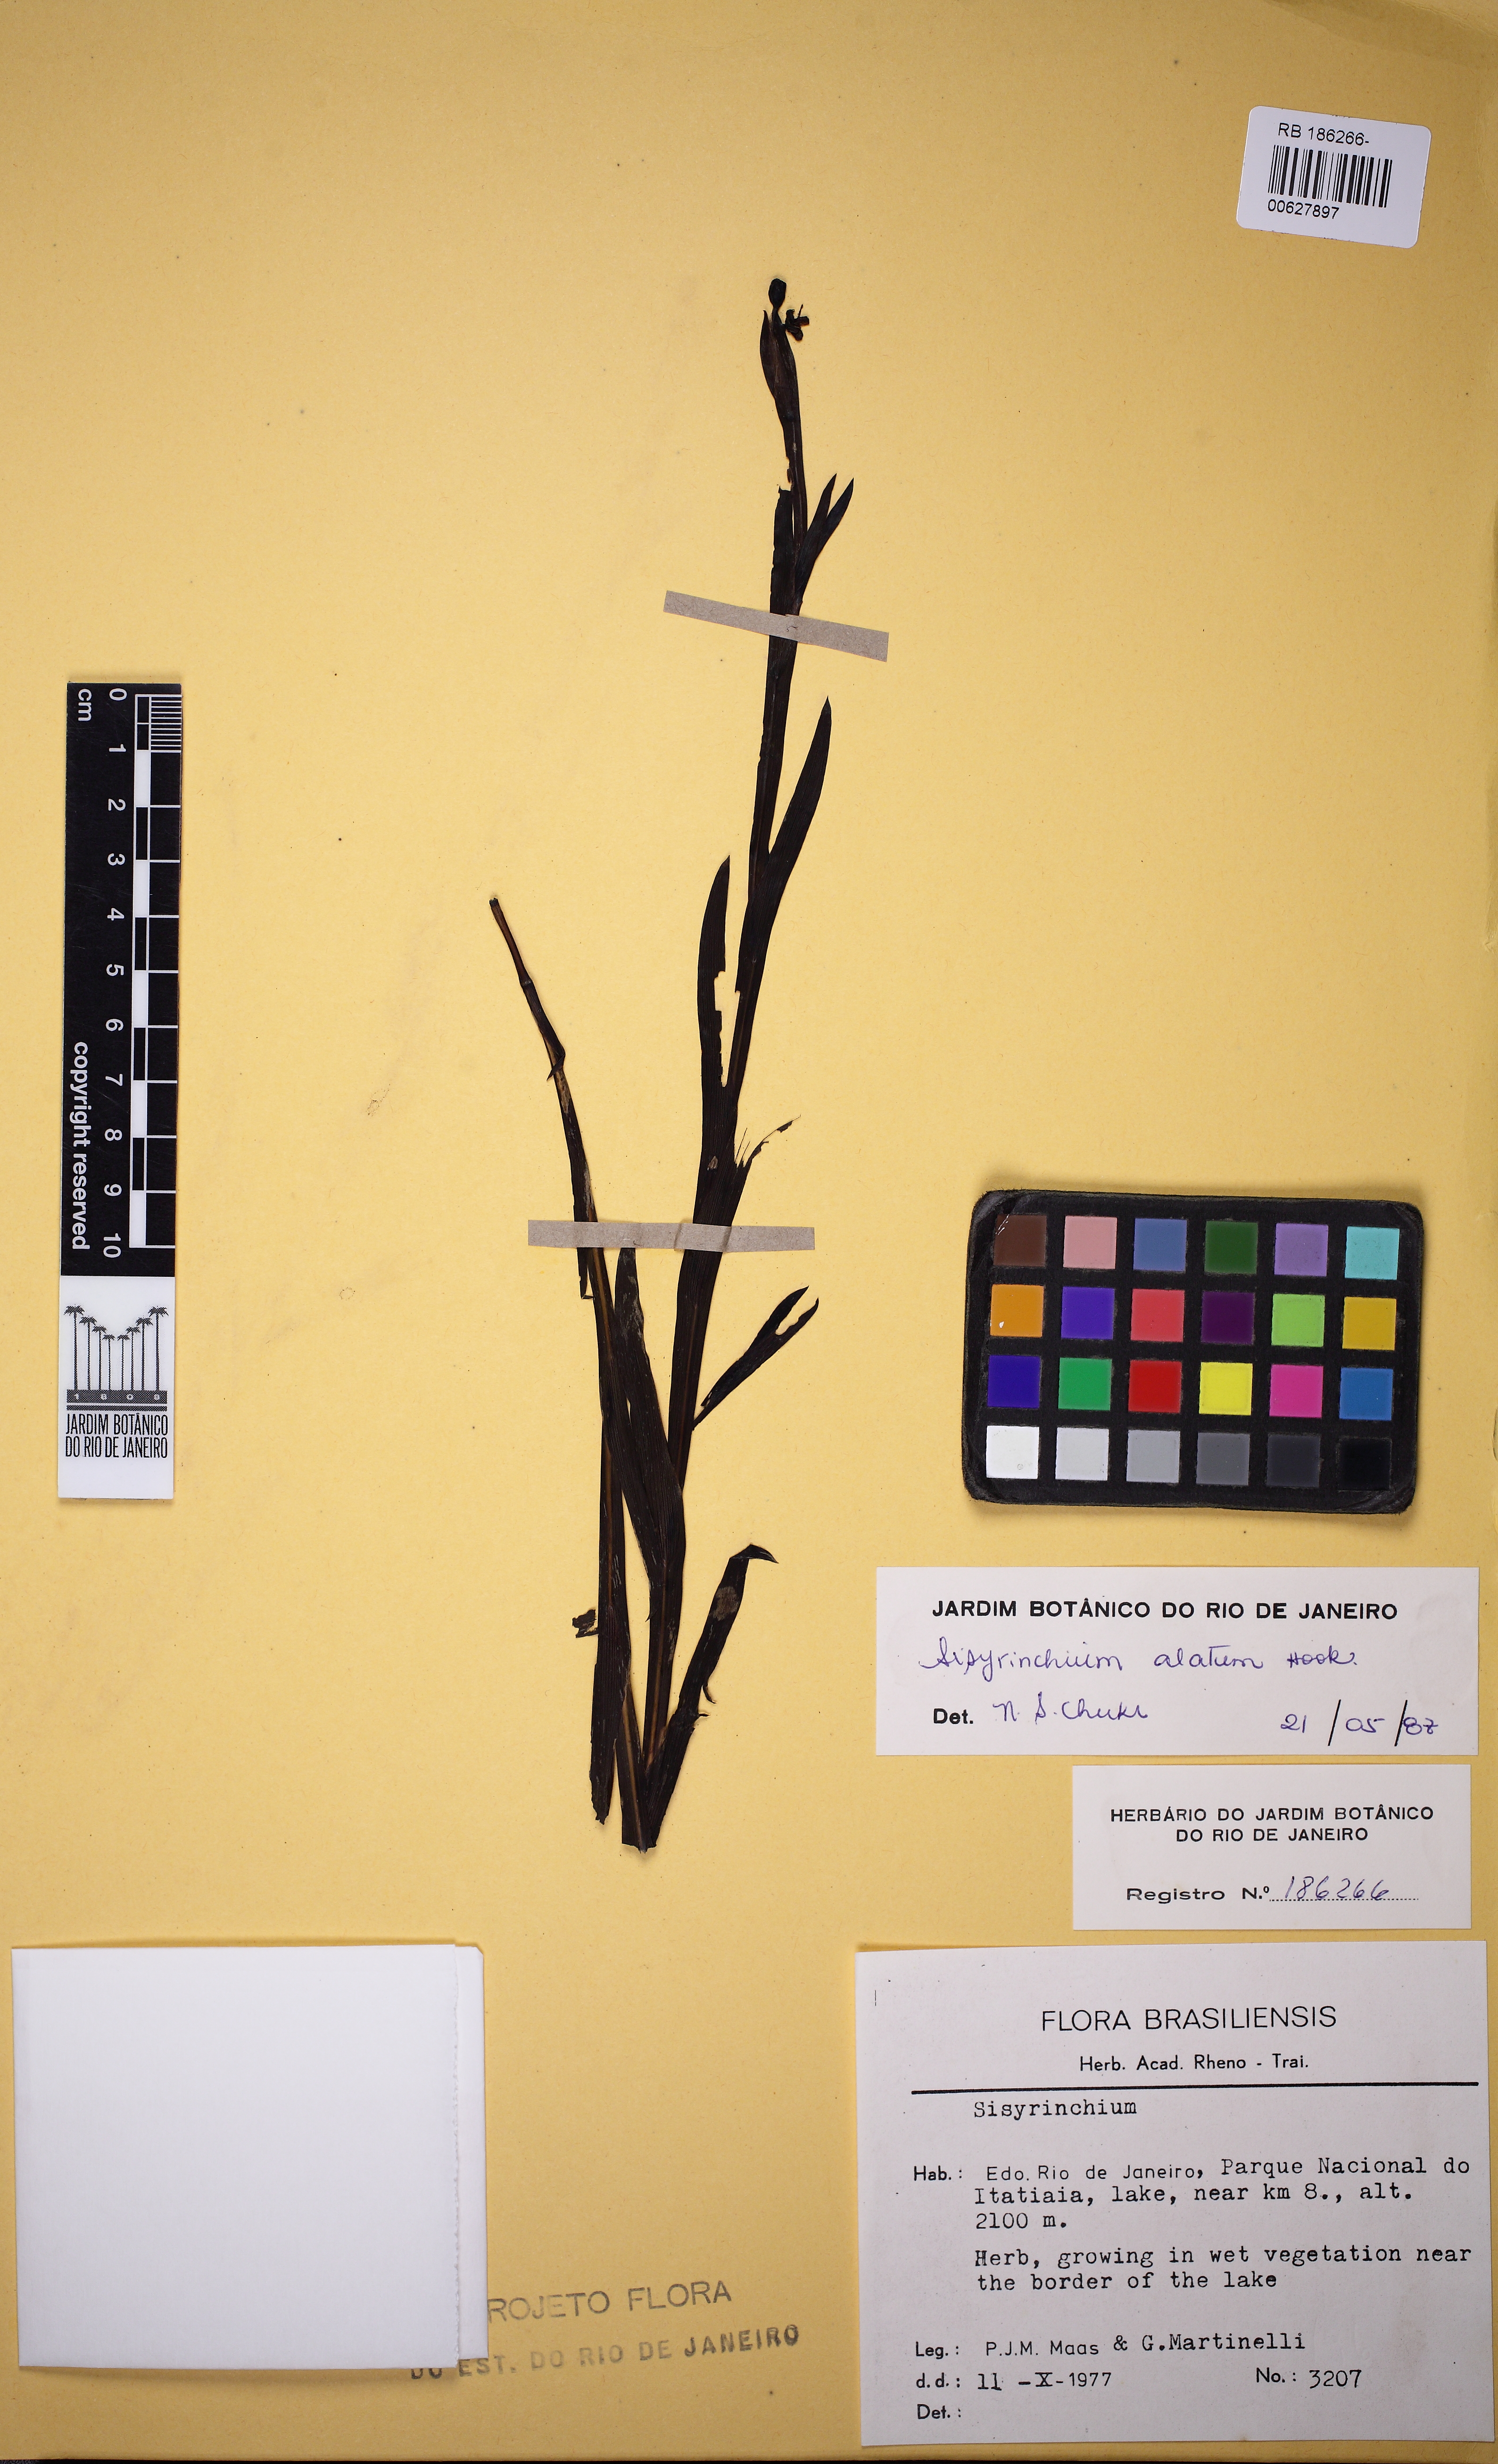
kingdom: Plantae
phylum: Tracheophyta
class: Liliopsida
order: Asparagales
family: Iridaceae
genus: Sisyrinchium
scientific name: Sisyrinchium vaginatum
